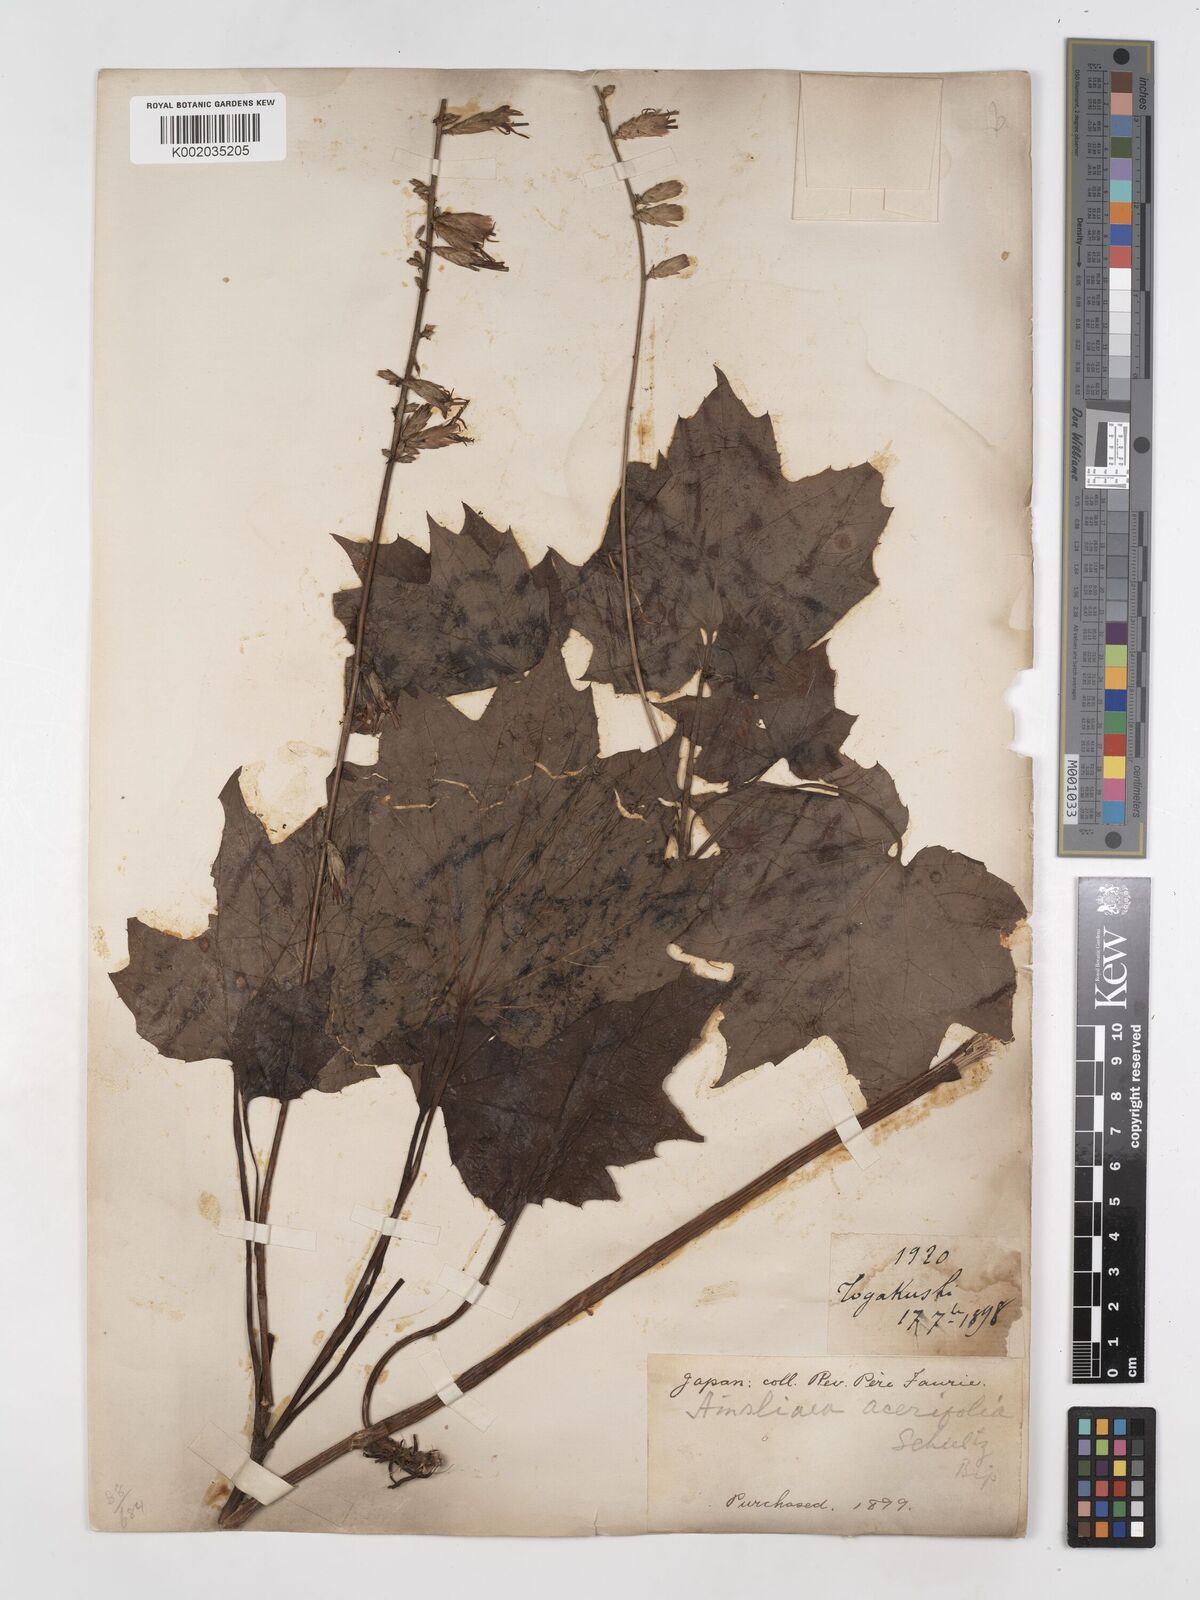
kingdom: Plantae
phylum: Tracheophyta
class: Magnoliopsida
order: Asterales
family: Asteraceae
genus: Ainsliaea
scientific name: Ainsliaea acerifolia
